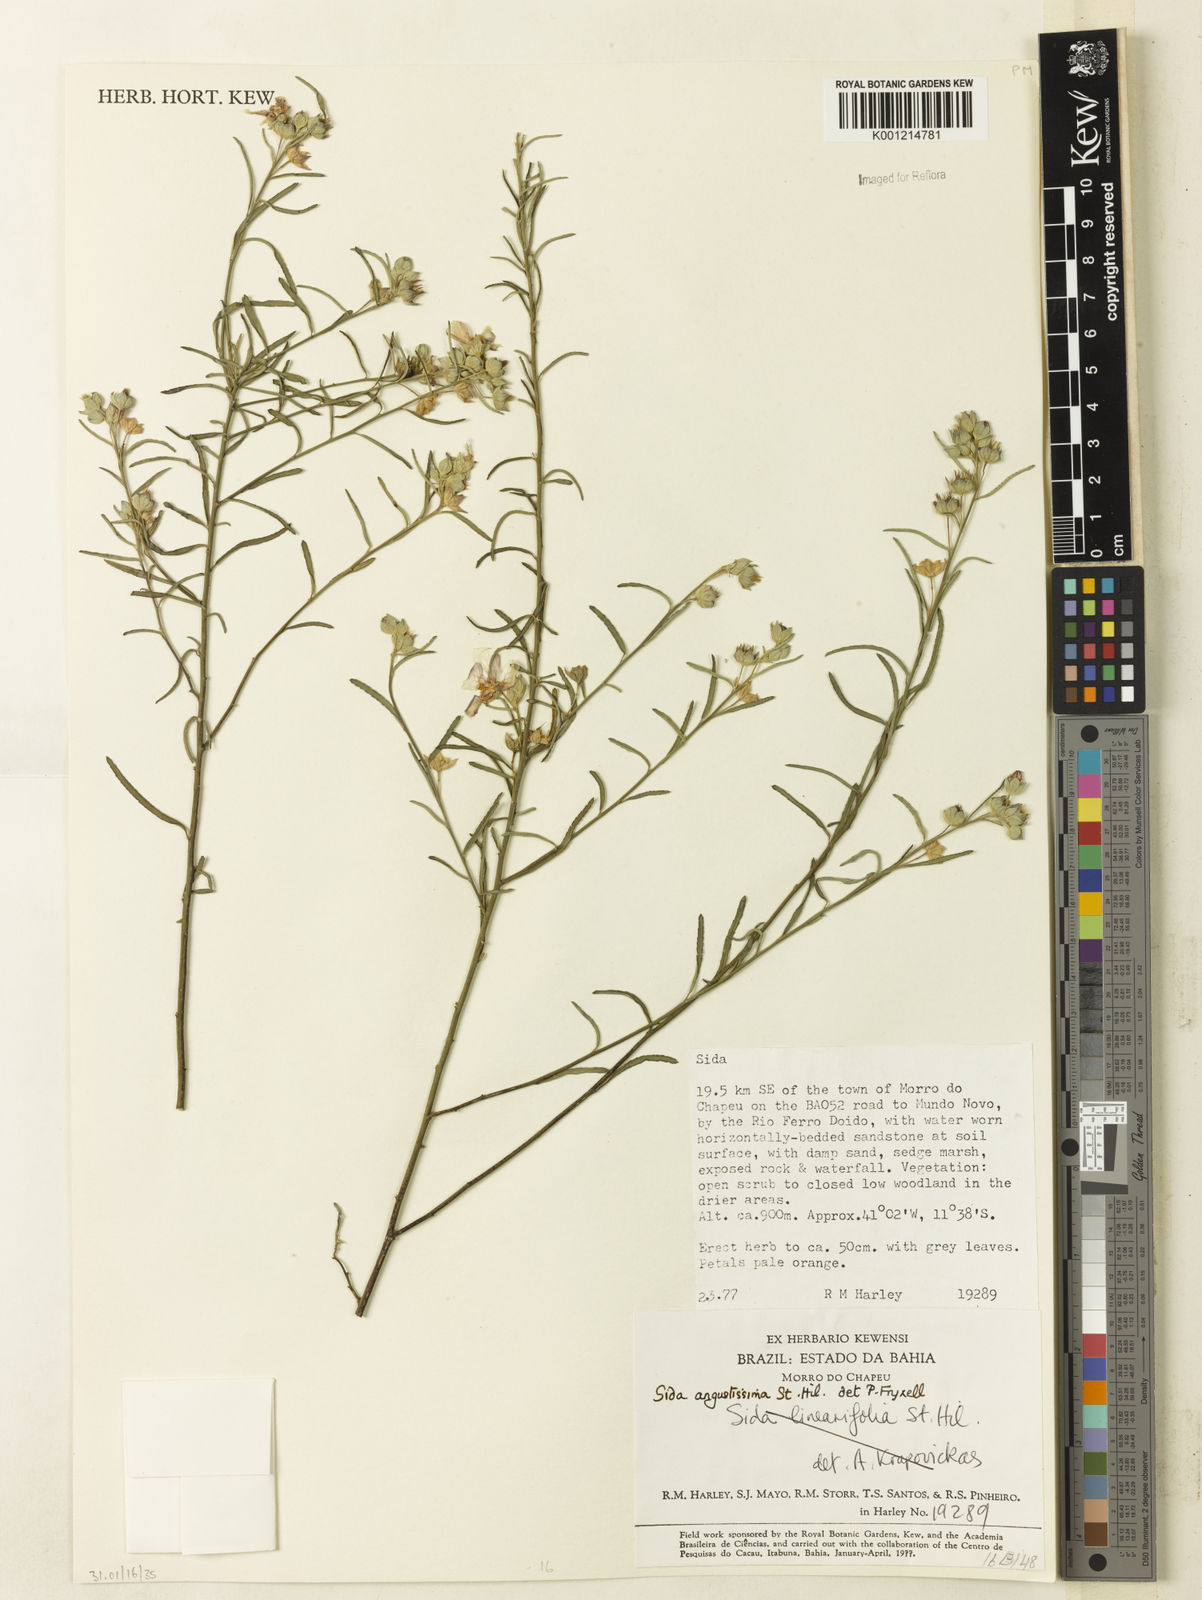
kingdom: Plantae
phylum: Tracheophyta
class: Magnoliopsida
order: Malvales
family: Malvaceae
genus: Sida
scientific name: Sida angustissima
